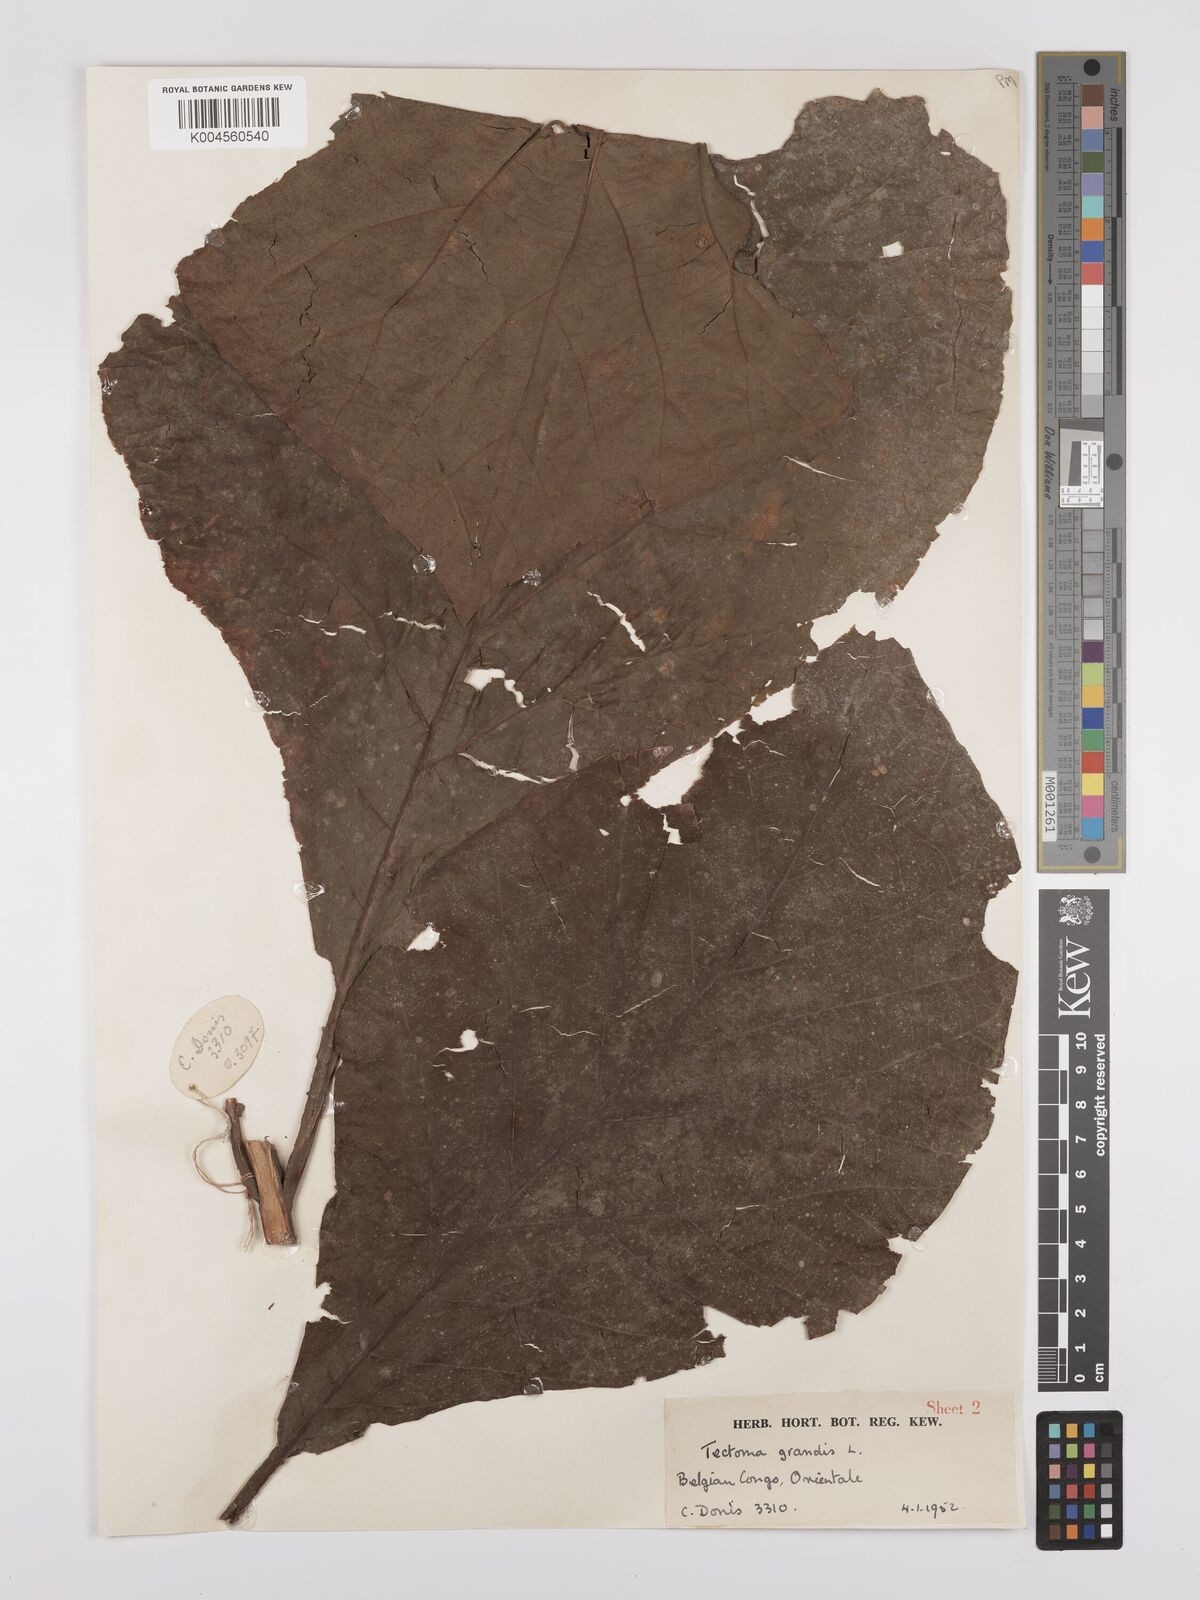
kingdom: Plantae
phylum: Tracheophyta
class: Magnoliopsida
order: Lamiales
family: Lamiaceae
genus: Tectona
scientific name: Tectona grandis
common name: Teak
